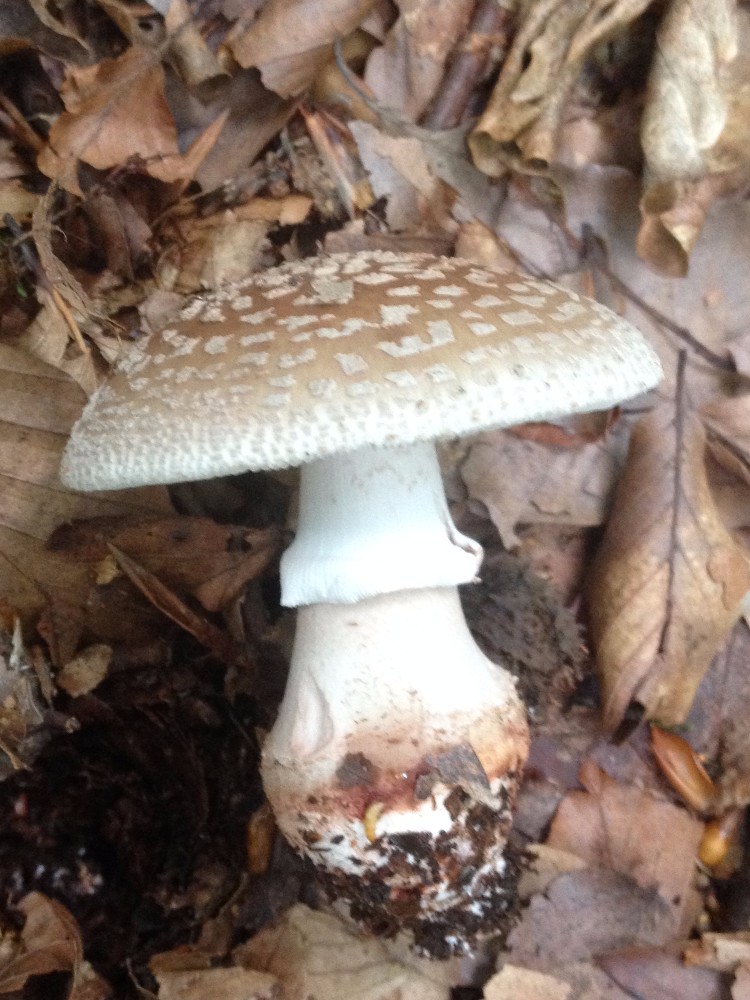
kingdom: Fungi
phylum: Basidiomycota
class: Agaricomycetes
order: Agaricales
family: Amanitaceae
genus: Amanita
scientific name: Amanita rubescens
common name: rødmende fluesvamp
